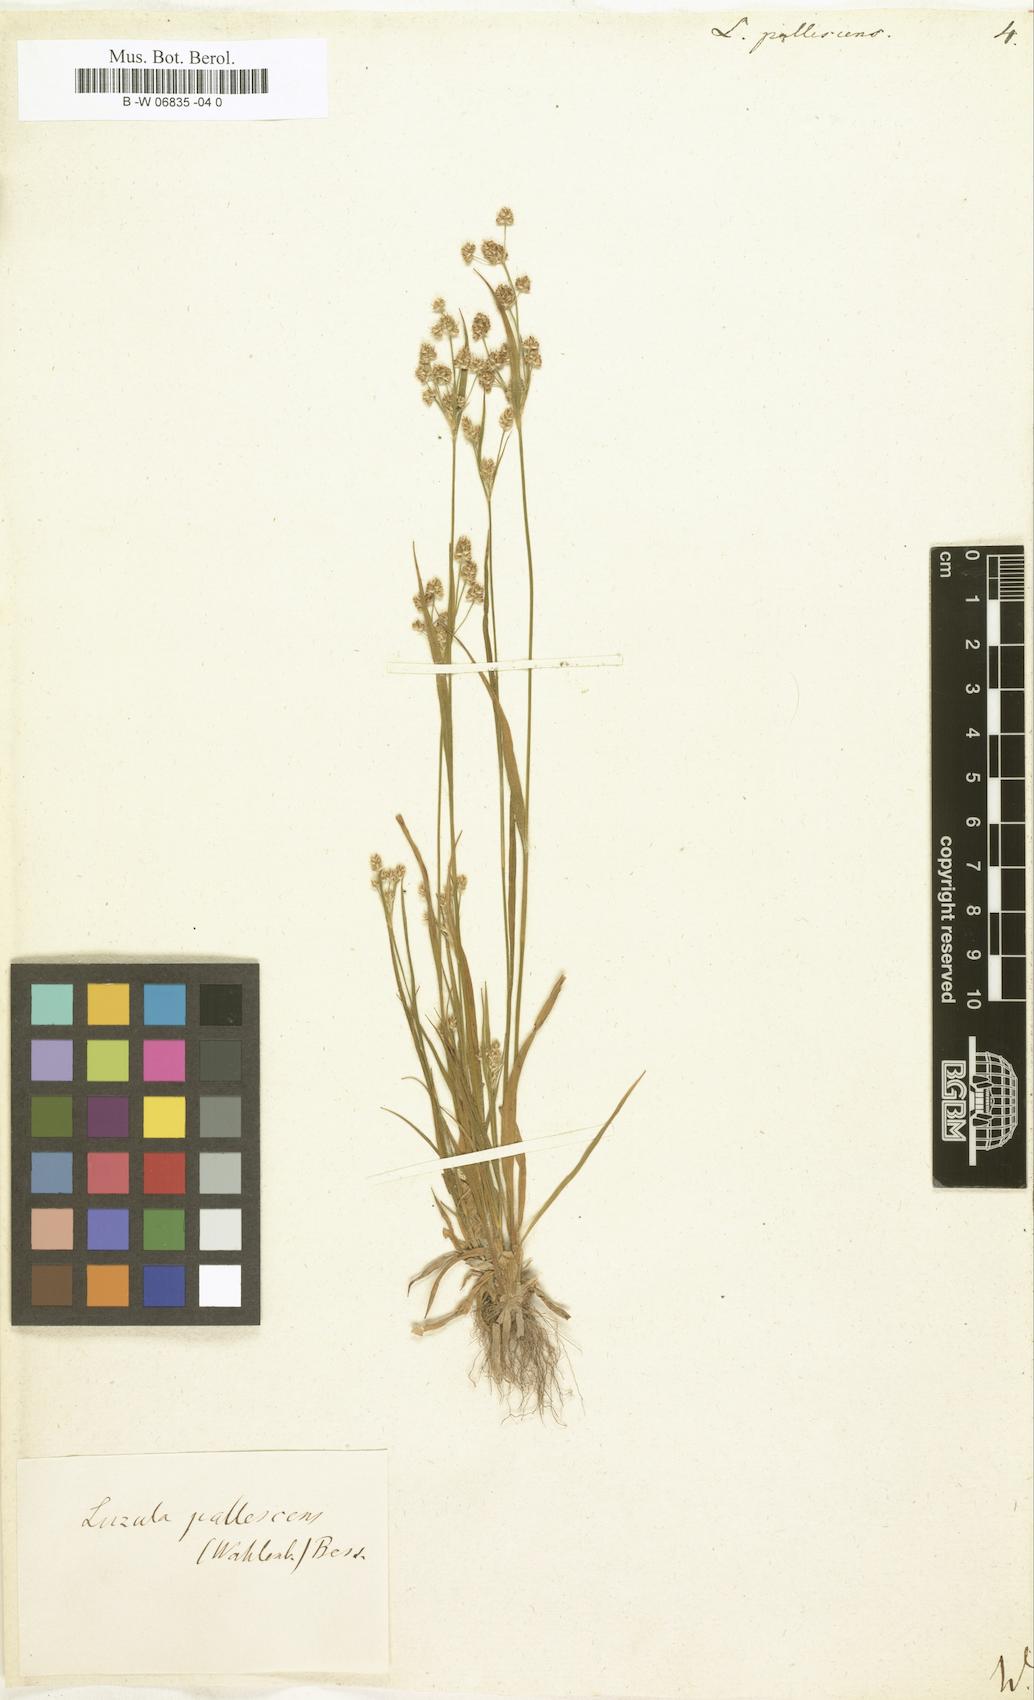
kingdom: Plantae
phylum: Tracheophyta
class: Liliopsida
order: Poales
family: Juncaceae
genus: Luzula
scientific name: Luzula pallescens
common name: Fen wood-rush
